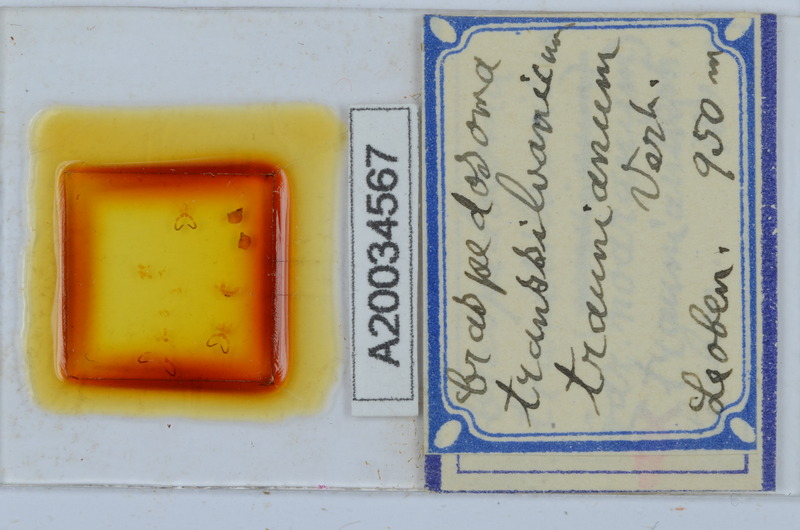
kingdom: Animalia
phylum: Arthropoda
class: Diplopoda
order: Chordeumatida
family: Craspedosomatidae
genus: Craspedosoma
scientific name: Craspedosoma transsilvanicum
